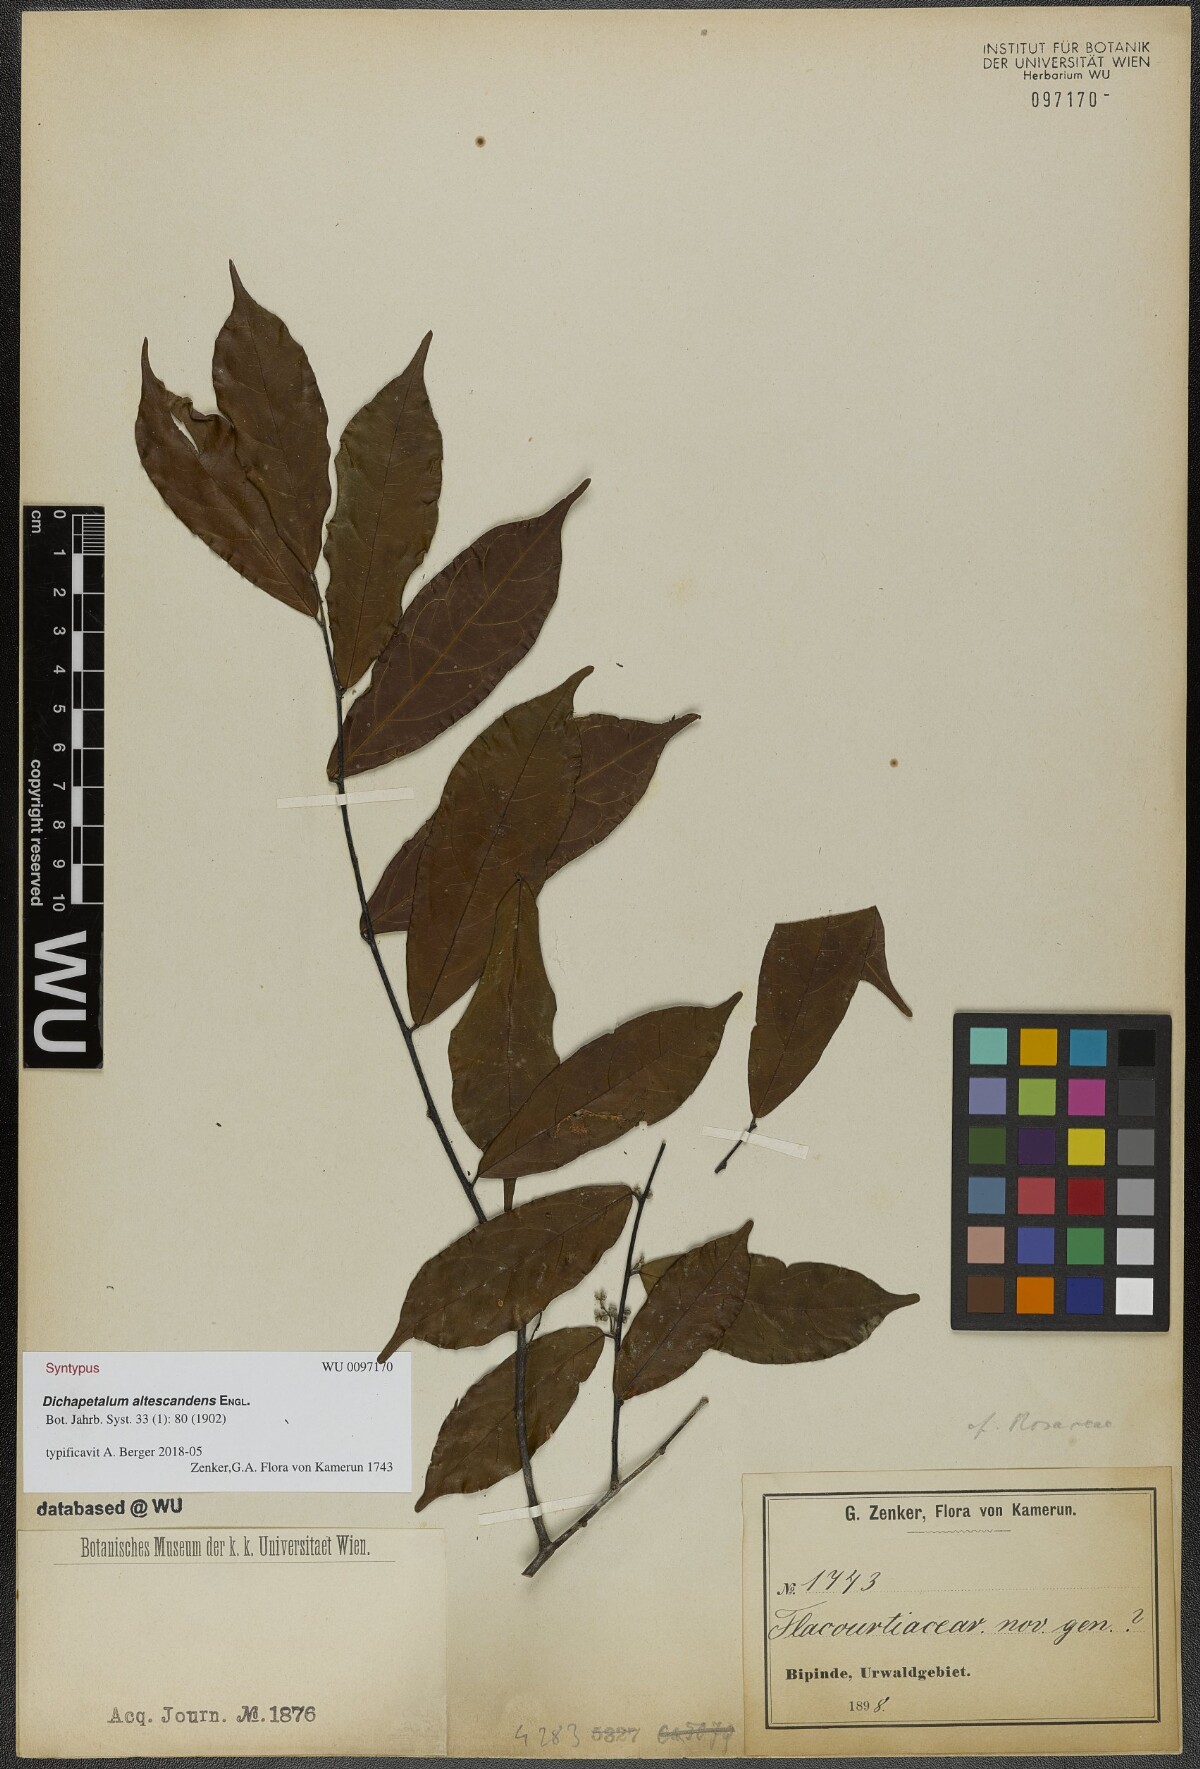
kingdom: Plantae
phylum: Tracheophyta
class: Magnoliopsida
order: Malpighiales
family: Dichapetalaceae
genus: Dichapetalum
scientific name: Dichapetalum altescandens
